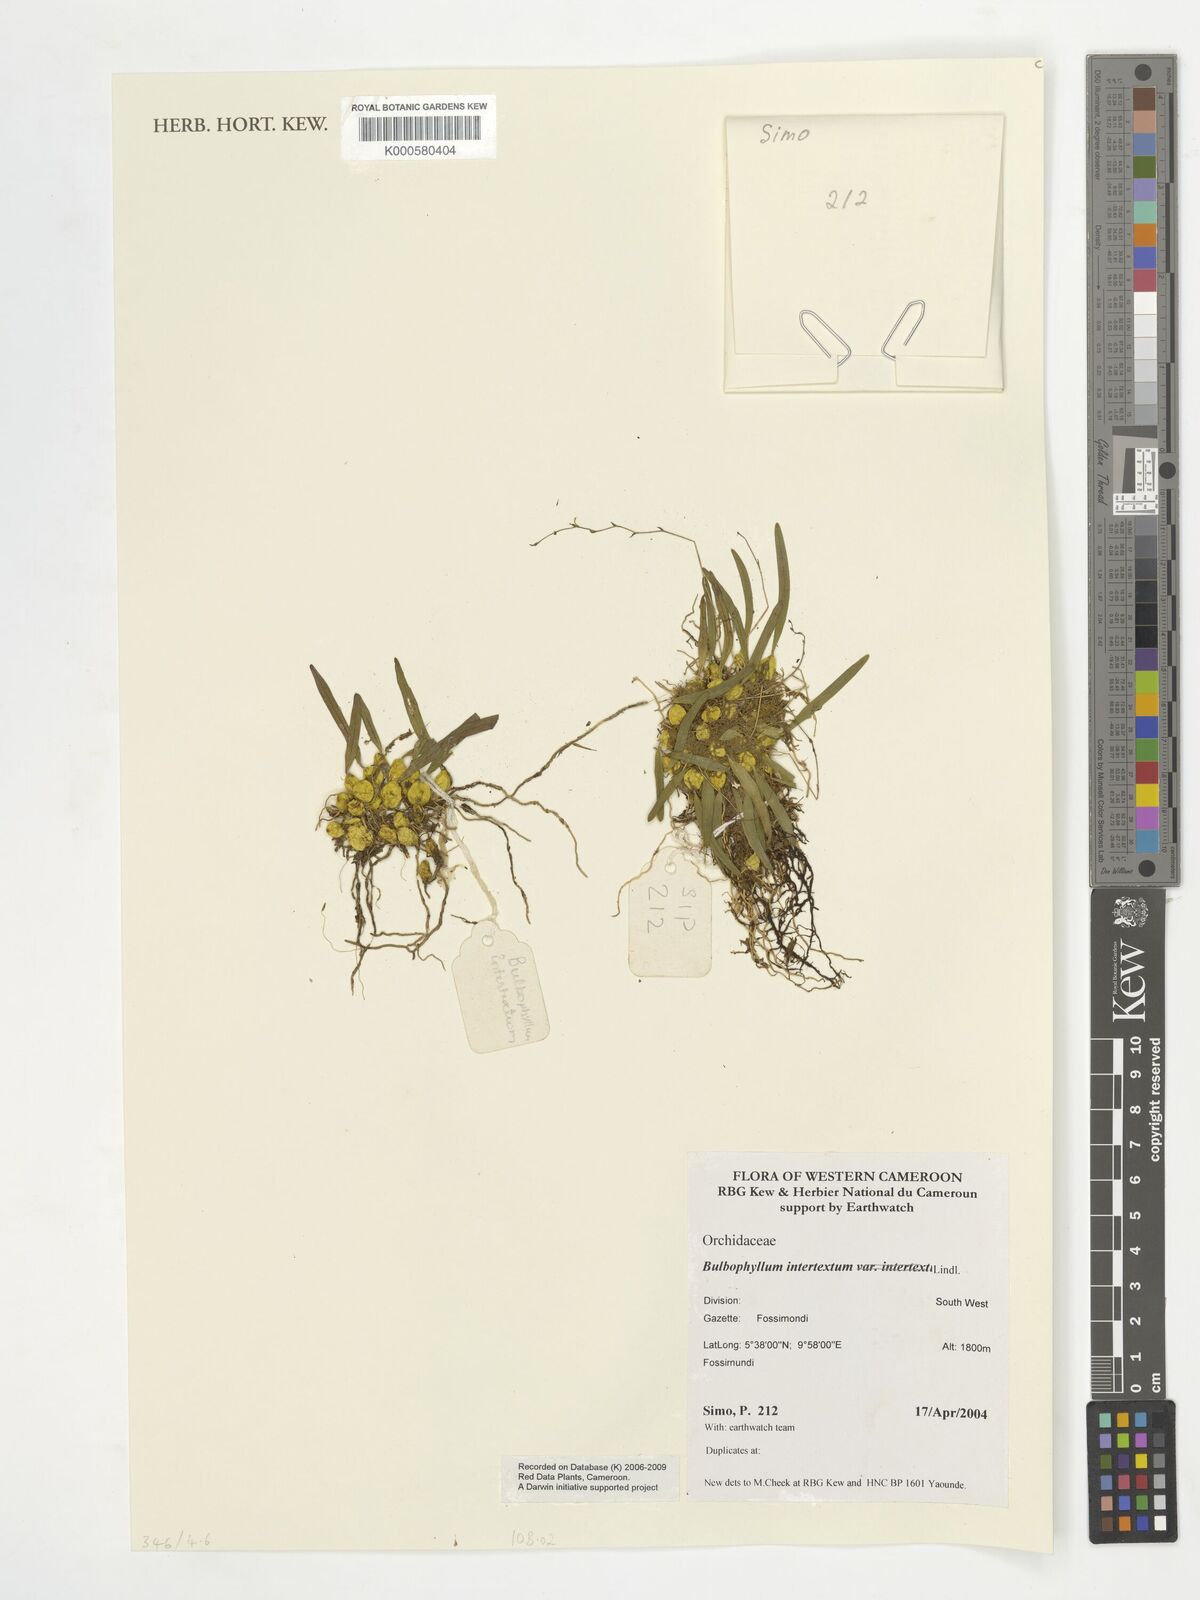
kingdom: Plantae
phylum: Tracheophyta
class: Liliopsida
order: Asparagales
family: Orchidaceae
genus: Bulbophyllum
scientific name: Bulbophyllum intertextum
